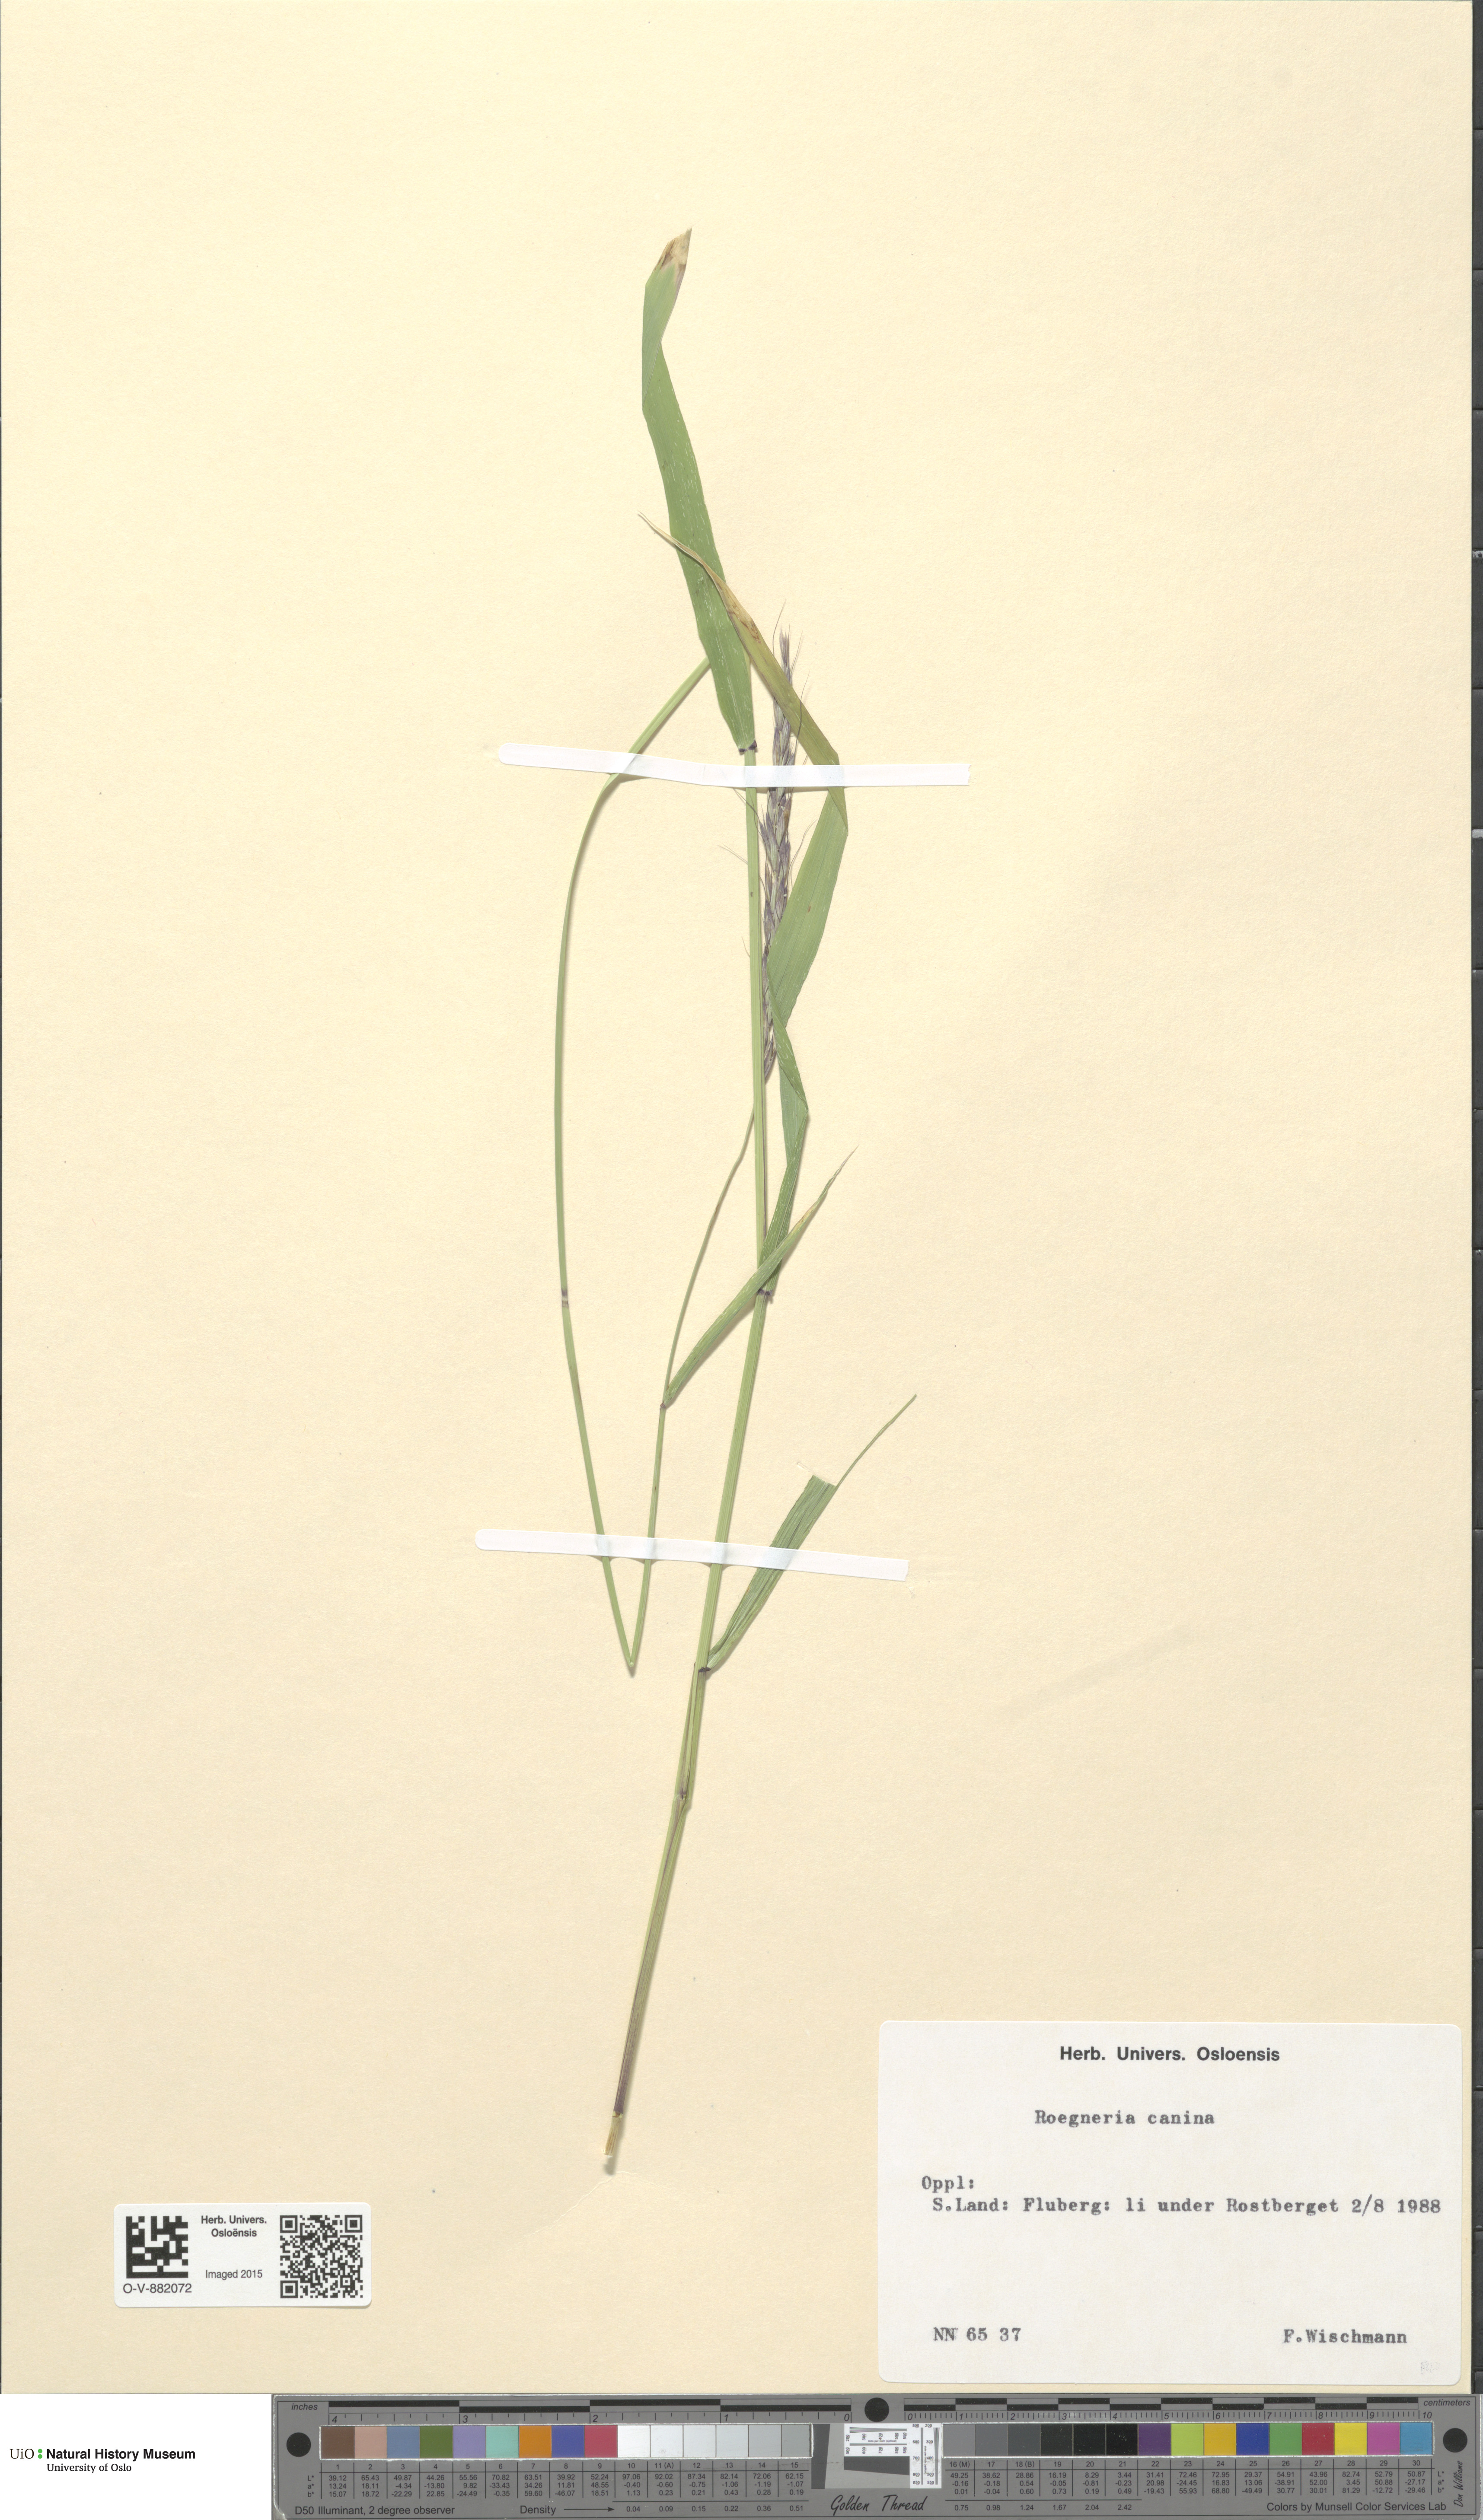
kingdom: Plantae
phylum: Tracheophyta
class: Liliopsida
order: Poales
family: Poaceae
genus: Elymus
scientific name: Elymus caninus
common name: Bearded couch
